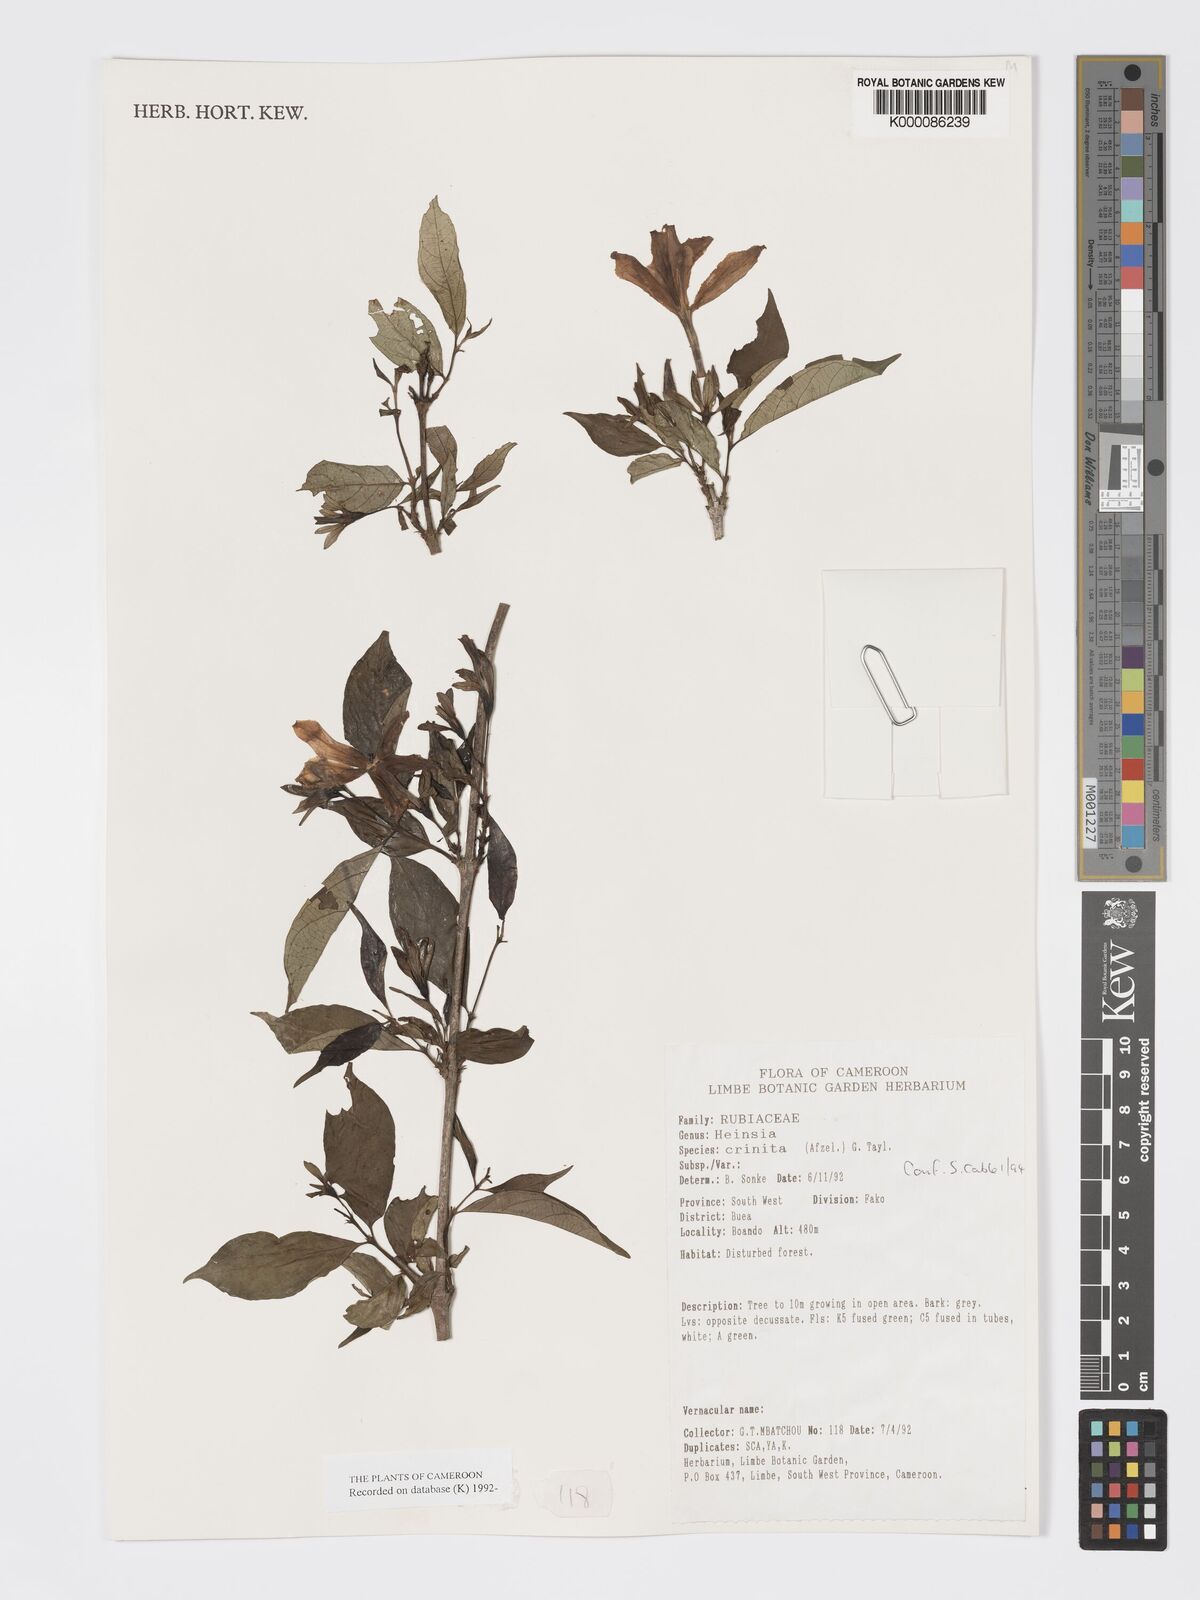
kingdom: Plantae
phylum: Tracheophyta
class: Magnoliopsida
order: Gentianales
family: Rubiaceae
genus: Heinsia
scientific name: Heinsia crinita
